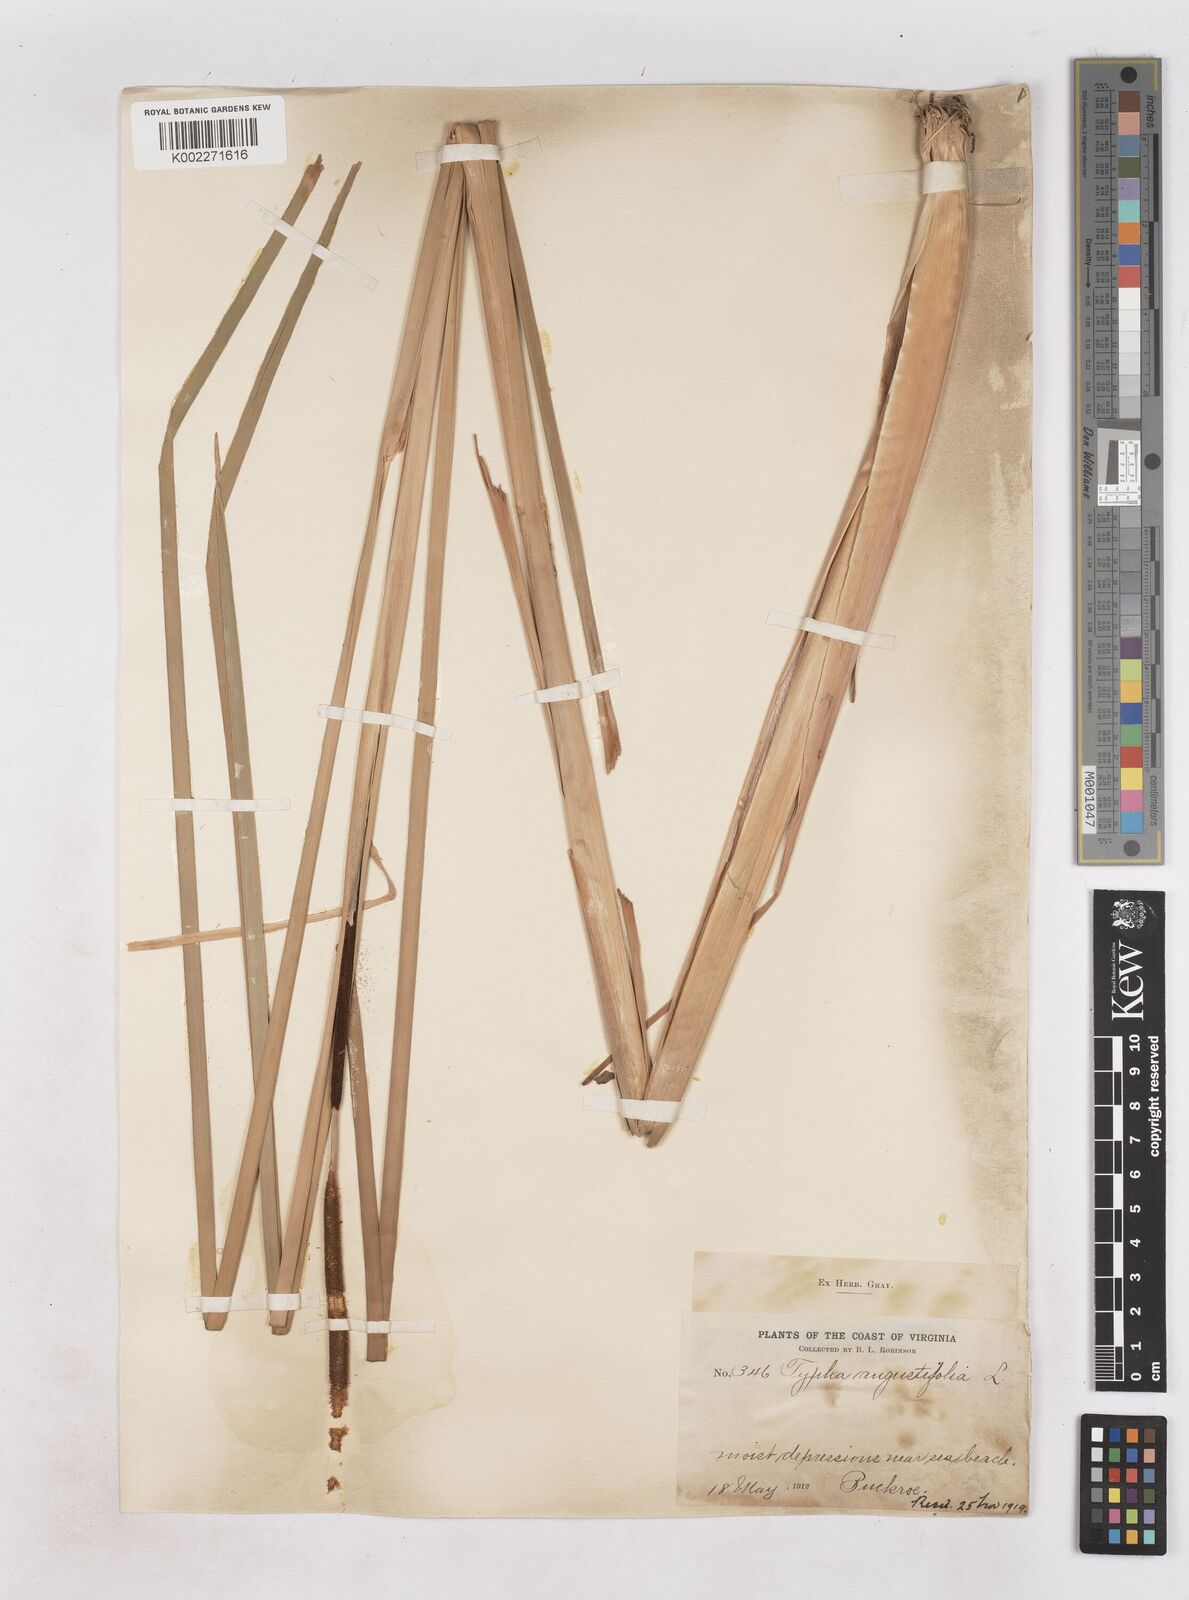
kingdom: Plantae
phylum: Tracheophyta
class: Liliopsida
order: Poales
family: Typhaceae
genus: Typha
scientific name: Typha angustifolia
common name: Lesser bulrush
